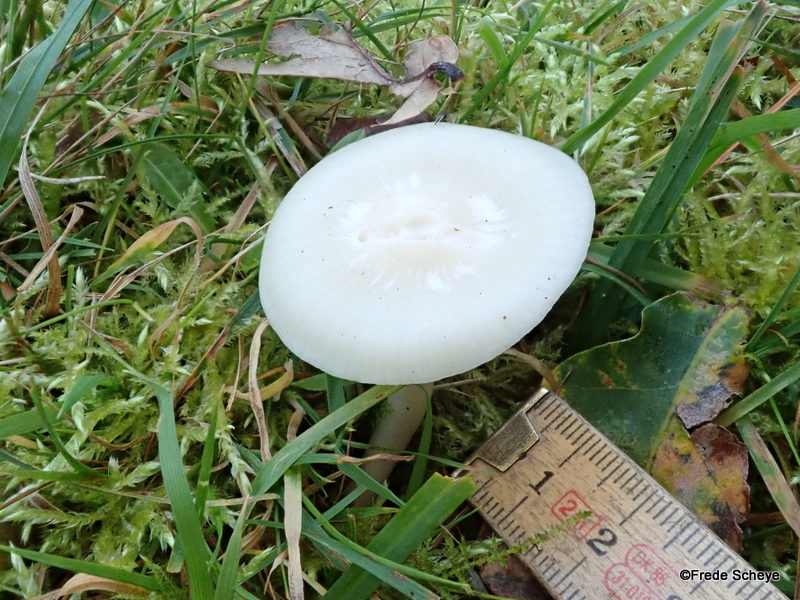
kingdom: Fungi
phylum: Basidiomycota
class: Agaricomycetes
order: Agaricales
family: Hygrophoraceae
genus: Cuphophyllus
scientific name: Cuphophyllus virgineus
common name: snehvid vokshat
